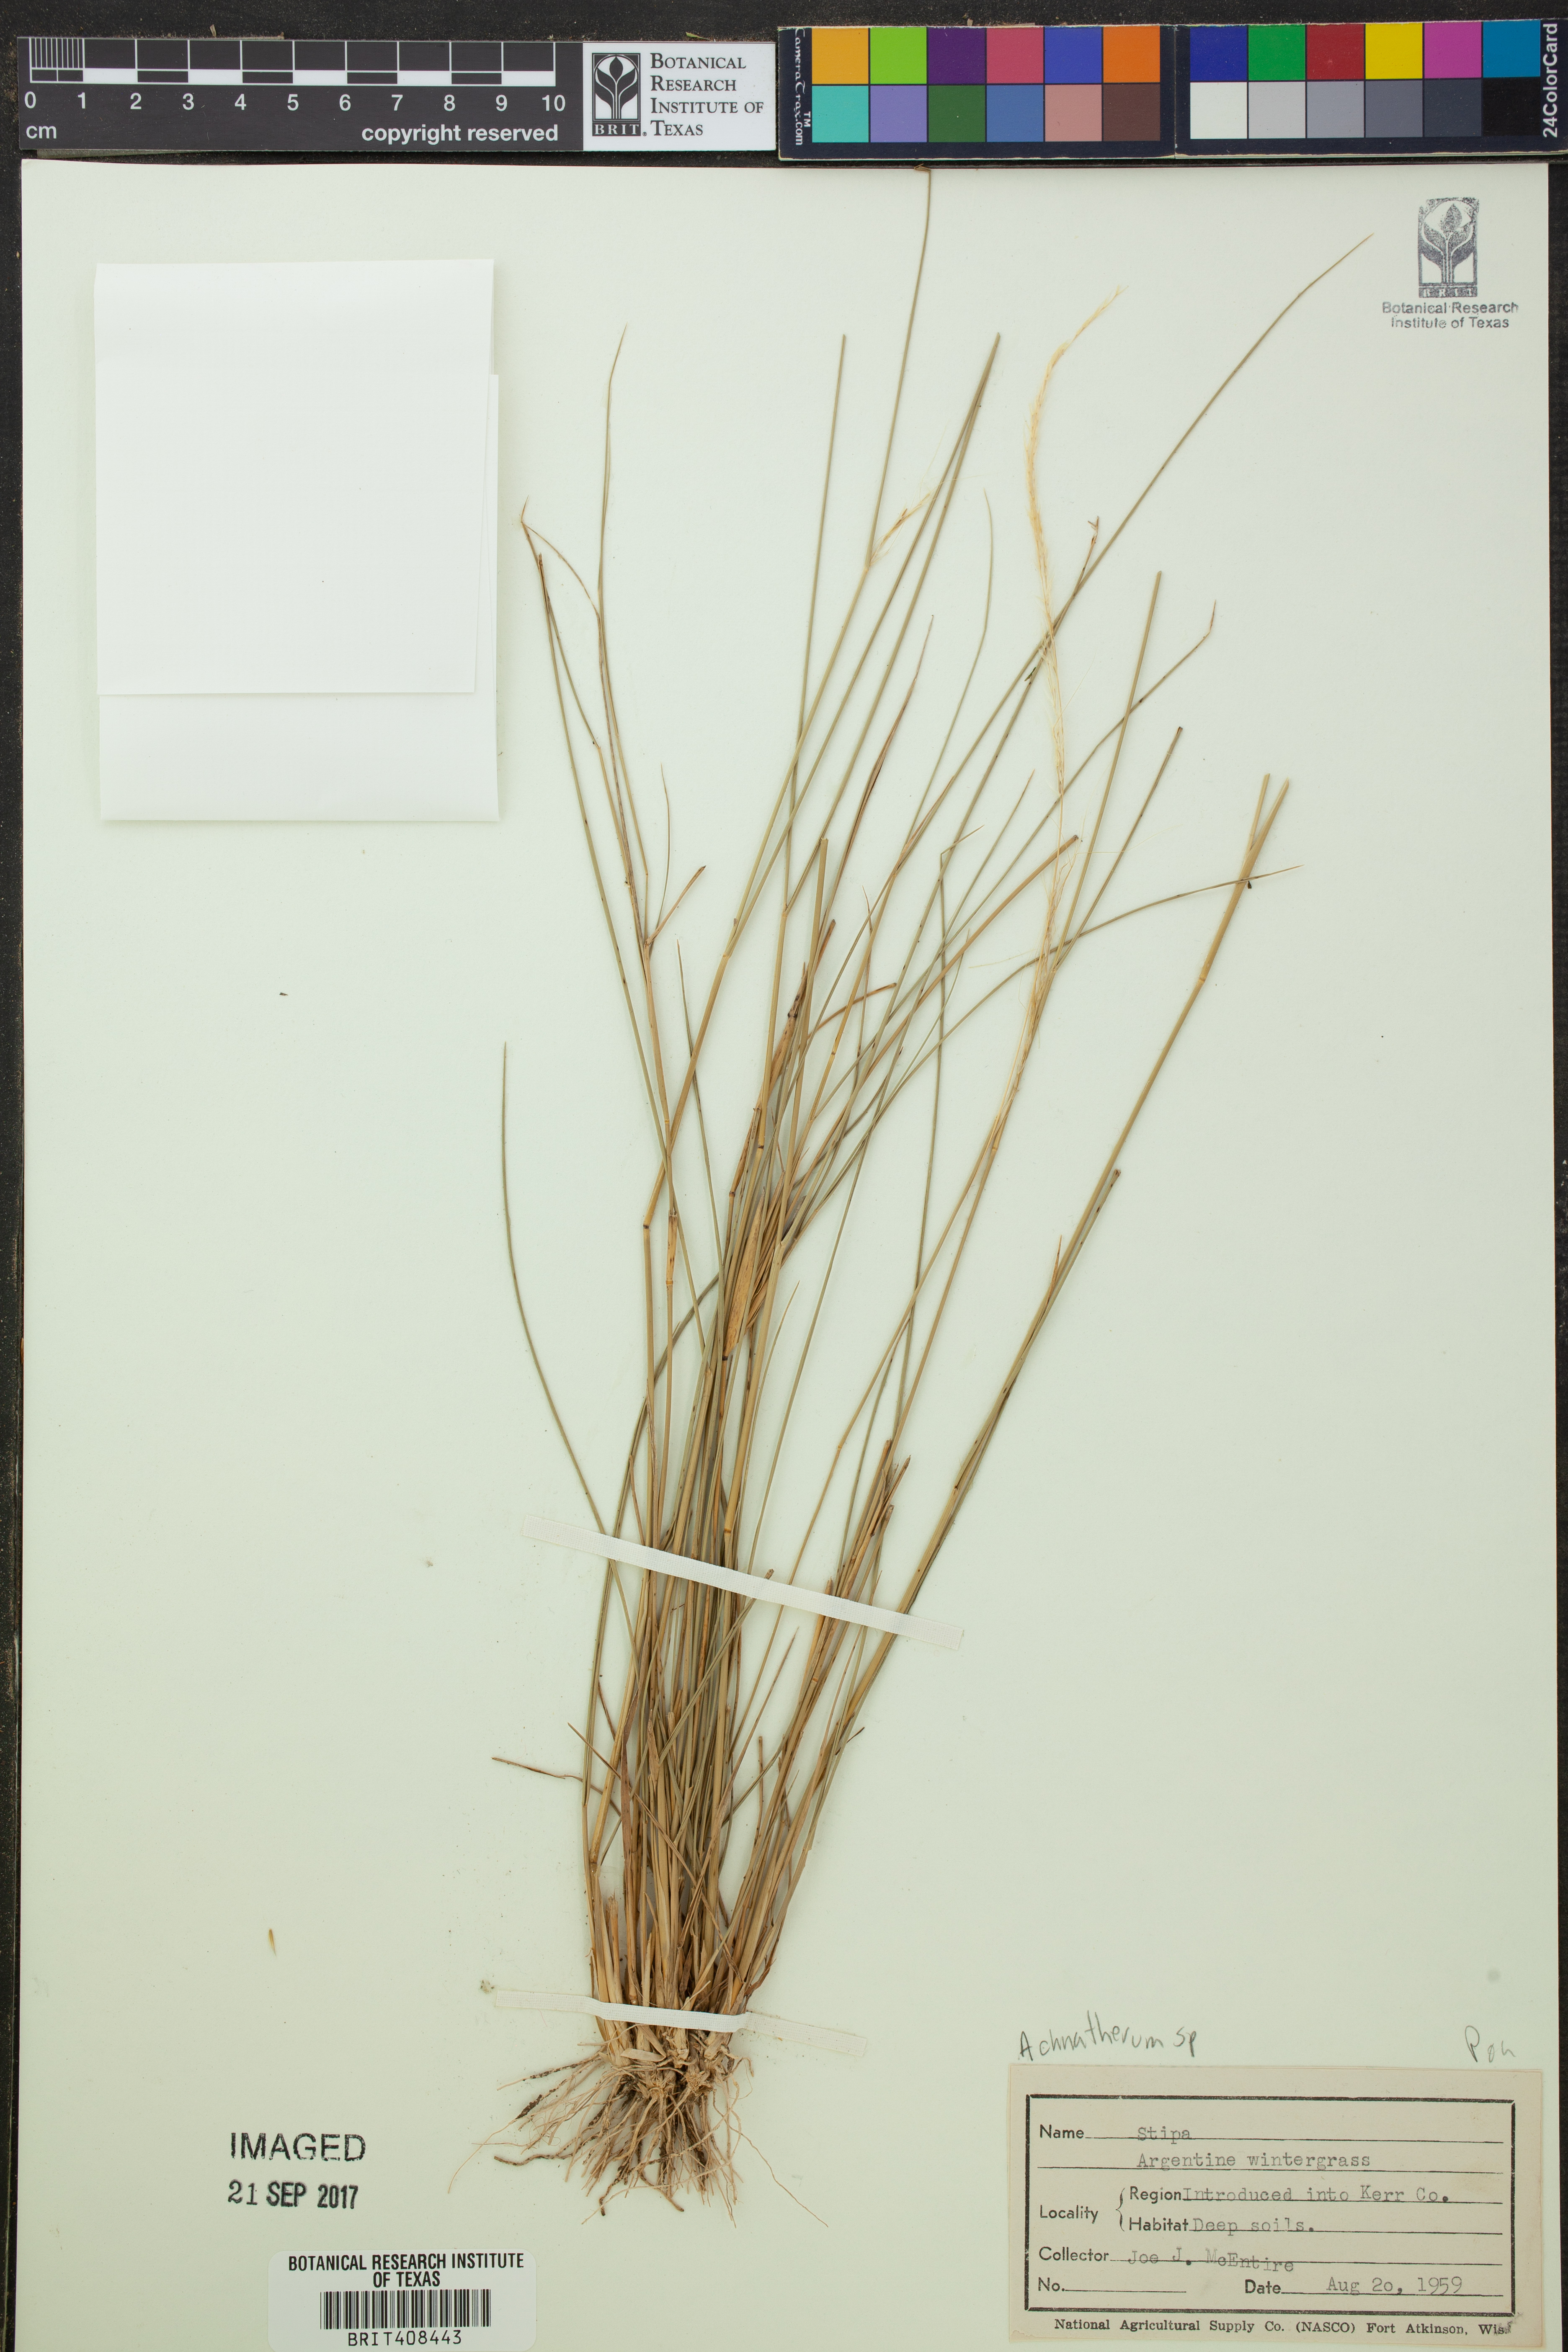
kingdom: Plantae
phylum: Tracheophyta
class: Liliopsida
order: Poales
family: Poaceae
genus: Stipa
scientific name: Stipa
